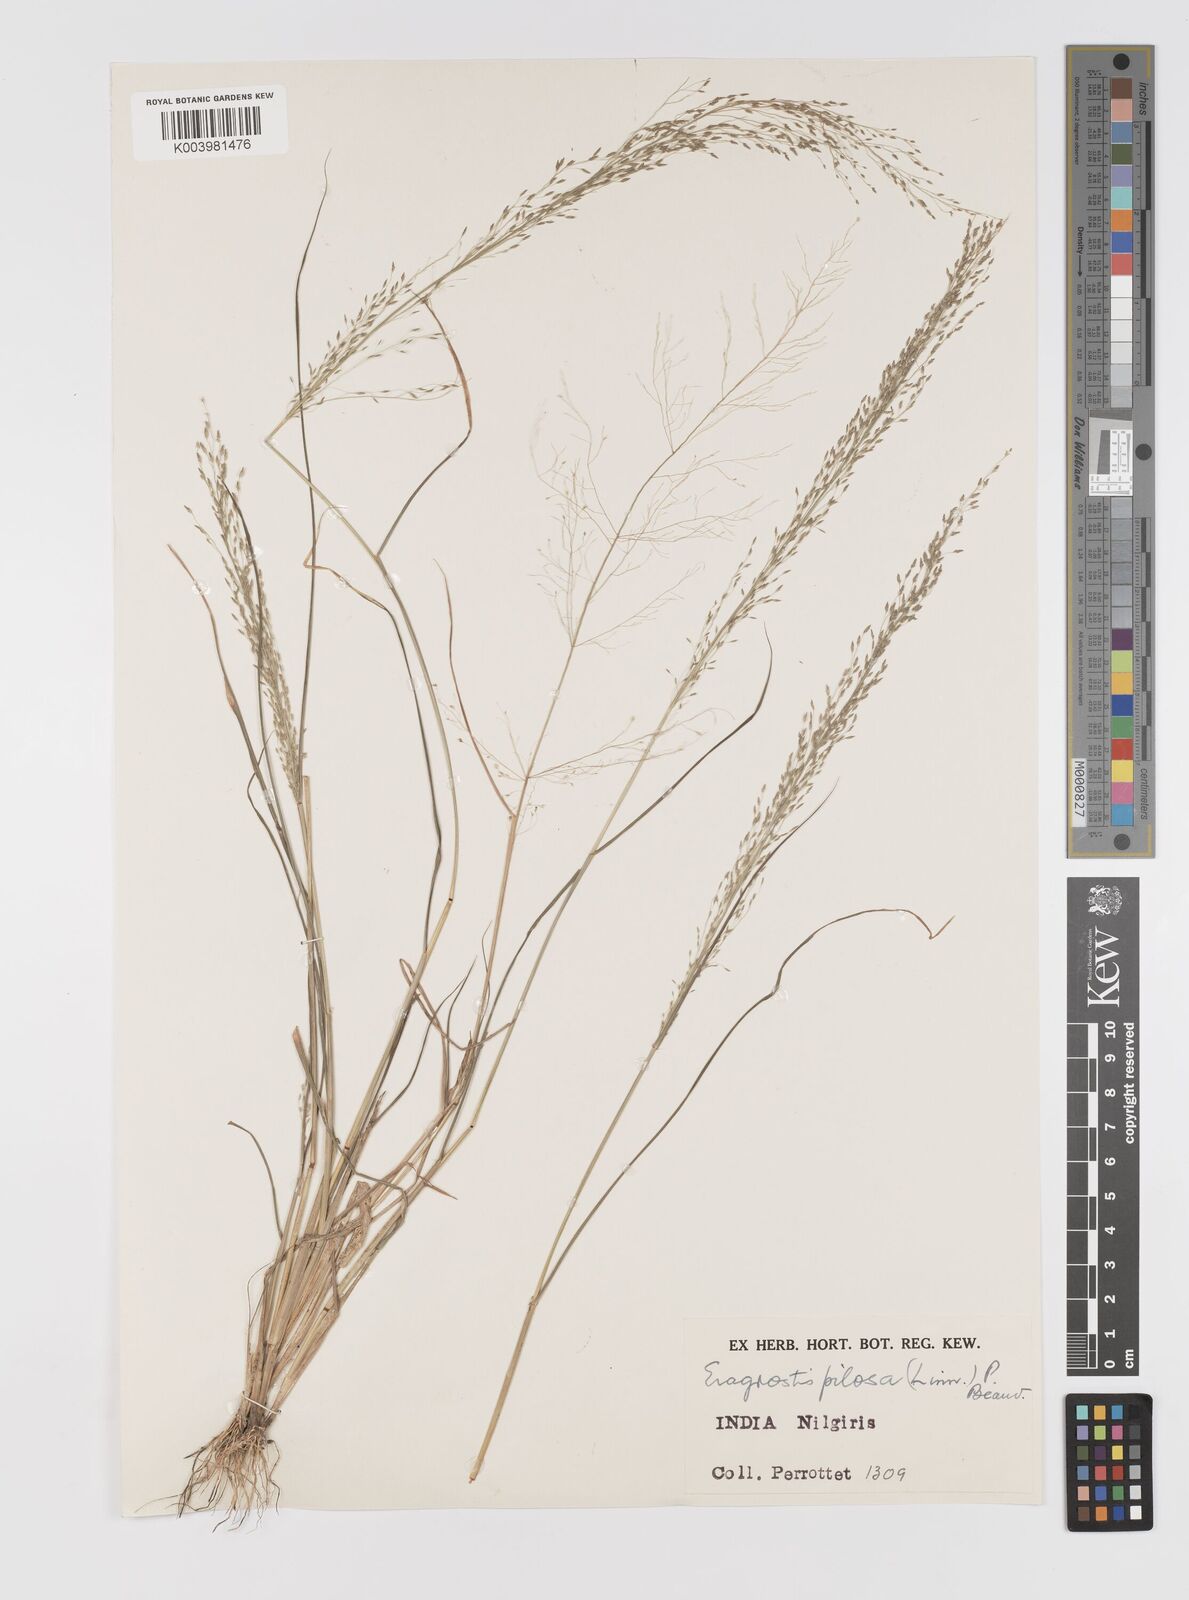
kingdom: Plantae
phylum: Tracheophyta
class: Liliopsida
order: Poales
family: Poaceae
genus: Eragrostis
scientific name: Eragrostis pilosa
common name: Indian lovegrass
